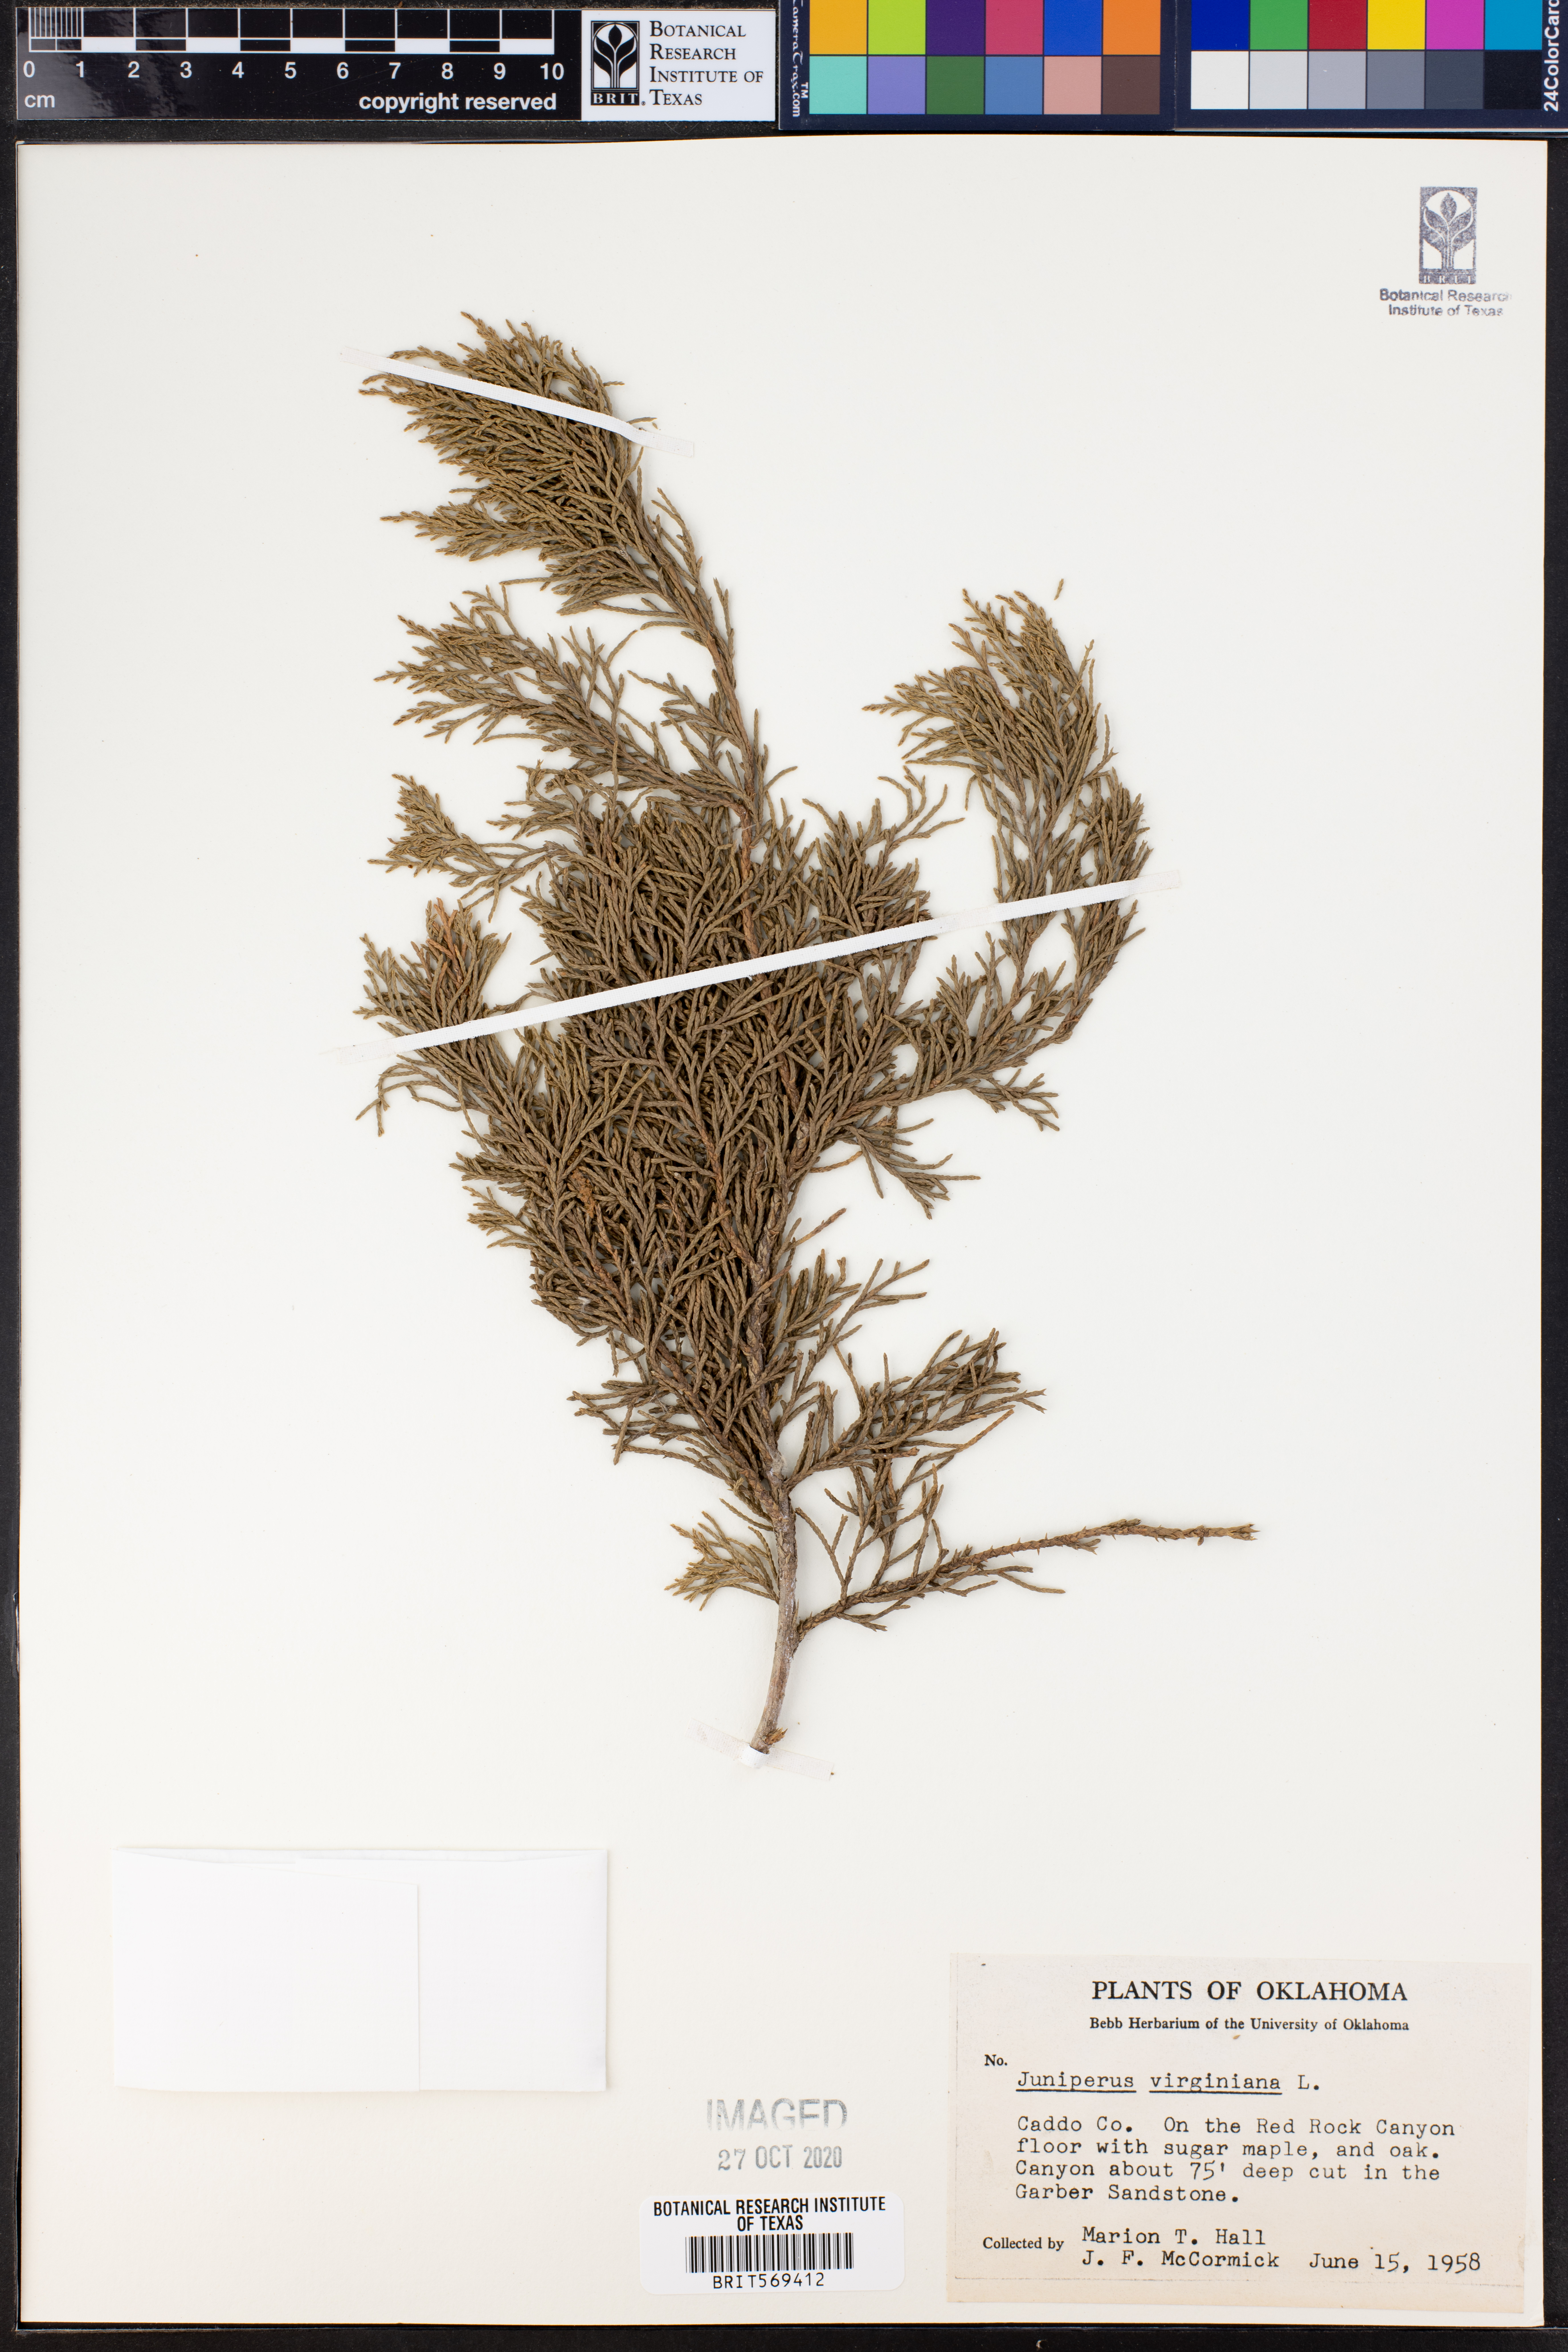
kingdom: Plantae
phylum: Tracheophyta
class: Pinopsida
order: Pinales
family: Cupressaceae
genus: Juniperus
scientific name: Juniperus virginiana
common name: Red juniper
